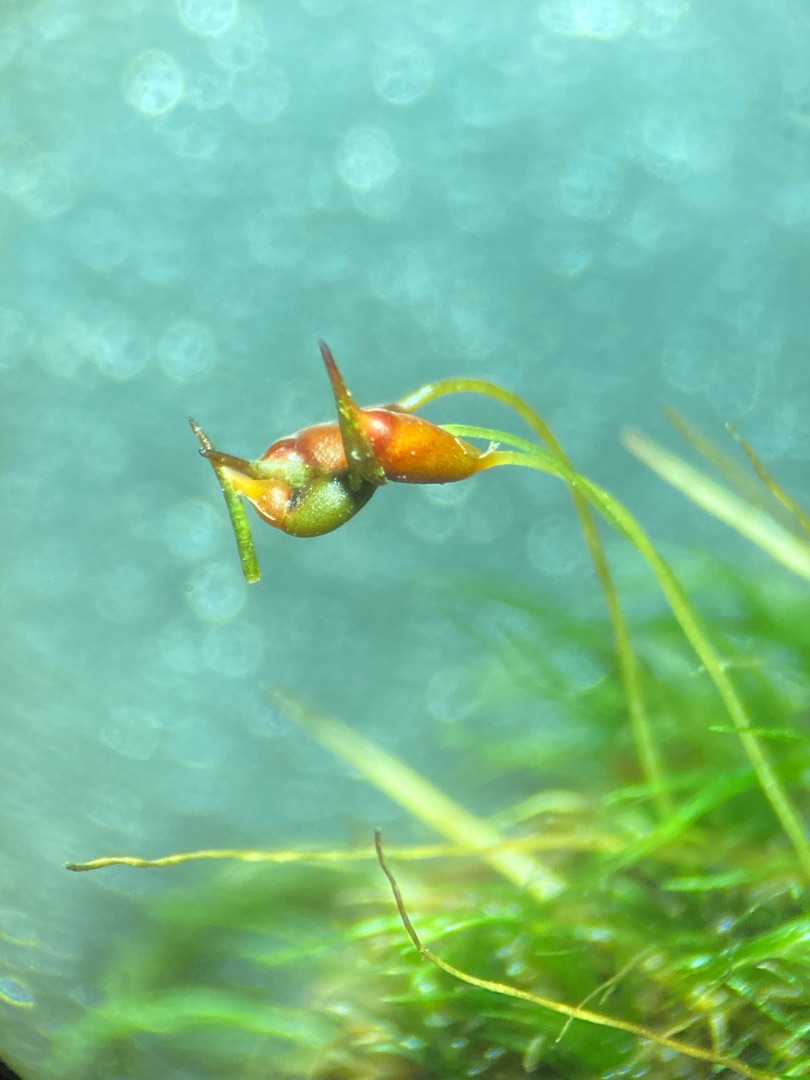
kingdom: Plantae
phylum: Bryophyta
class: Bryopsida
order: Dicranales
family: Dicranellaceae
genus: Dicranella
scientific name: Dicranella heteromalla
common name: Almindelig fløjlsmos
